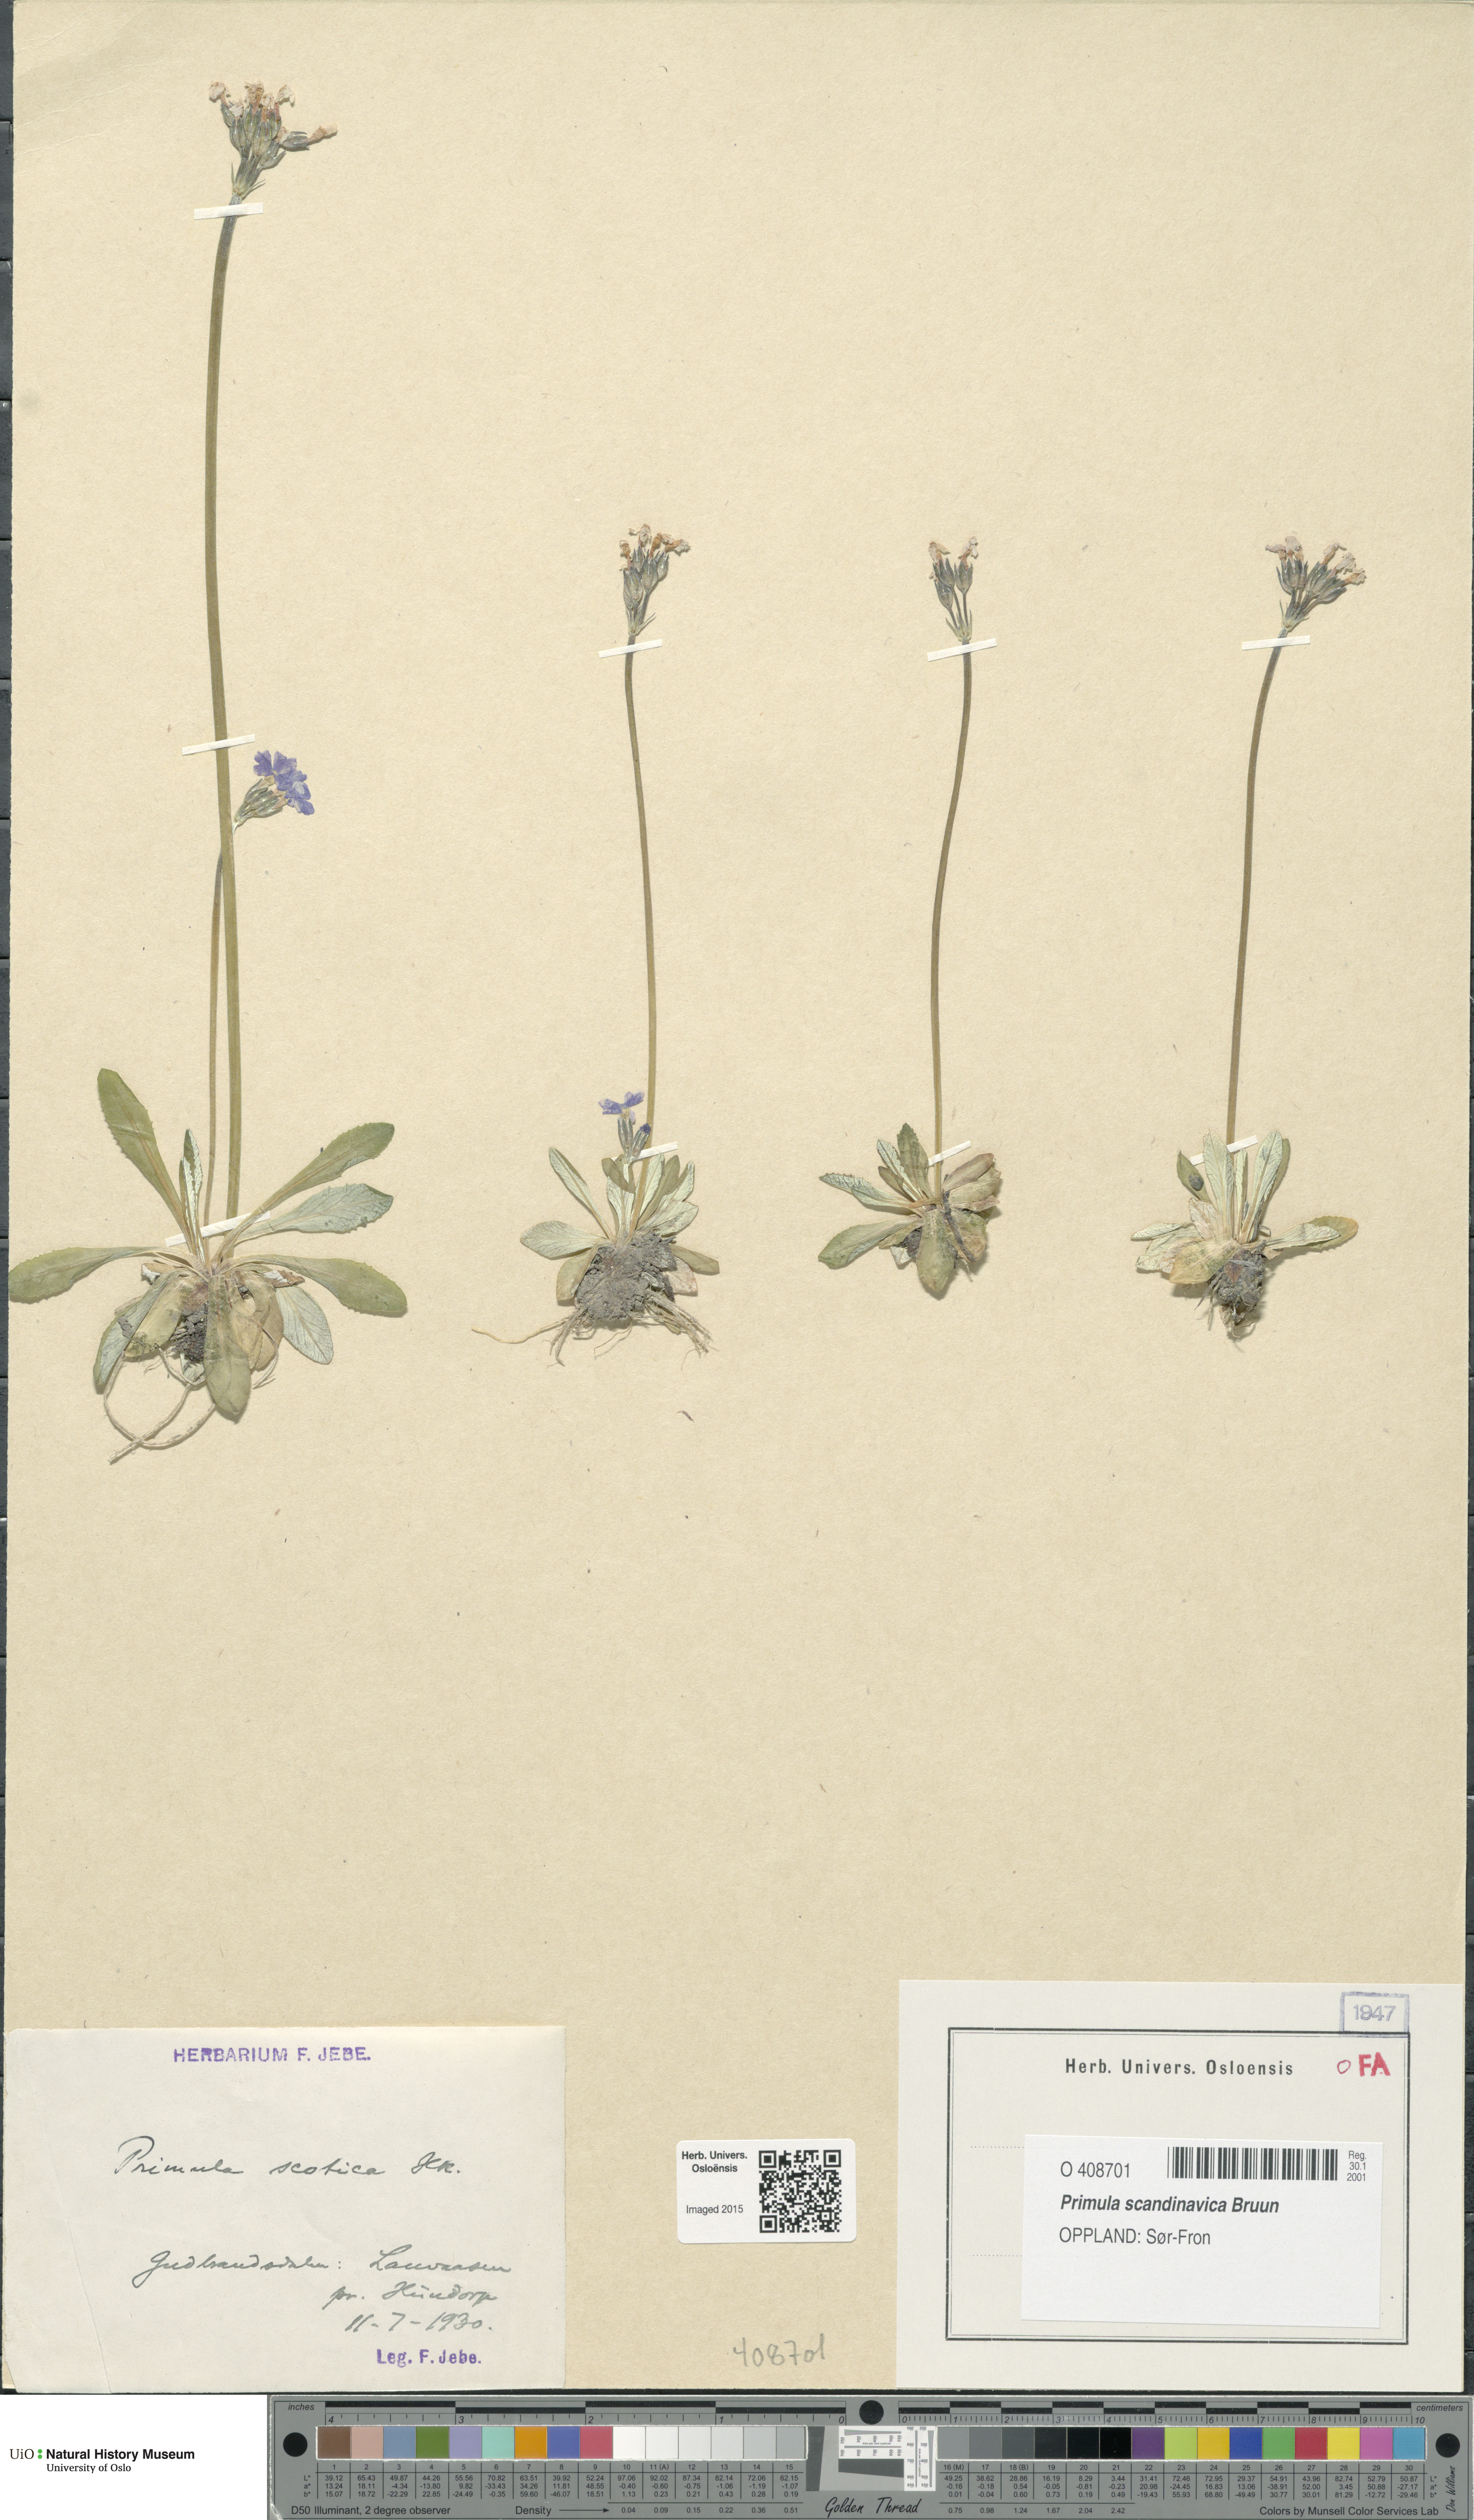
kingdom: Plantae
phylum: Tracheophyta
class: Magnoliopsida
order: Ericales
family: Primulaceae
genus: Primula
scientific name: Primula scandinavica
